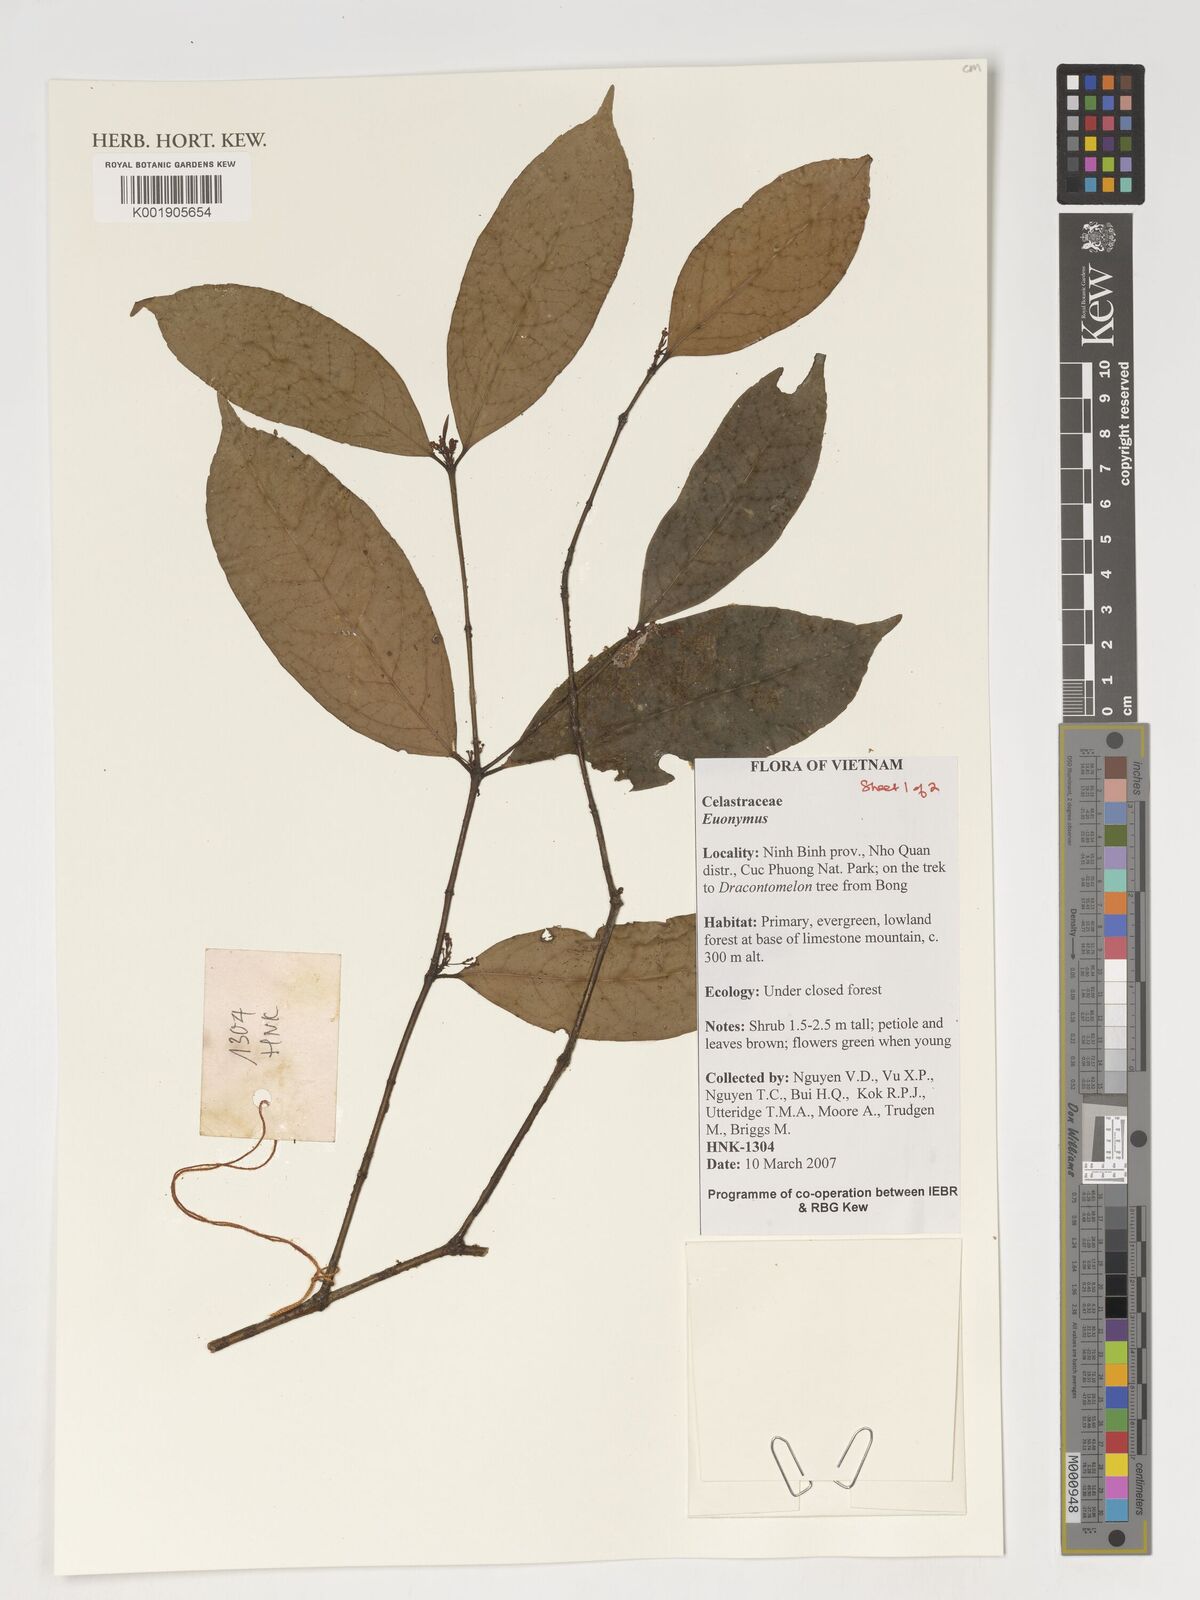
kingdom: Plantae
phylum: Tracheophyta
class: Magnoliopsida
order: Celastrales
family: Celastraceae
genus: Euonymus
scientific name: Euonymus
